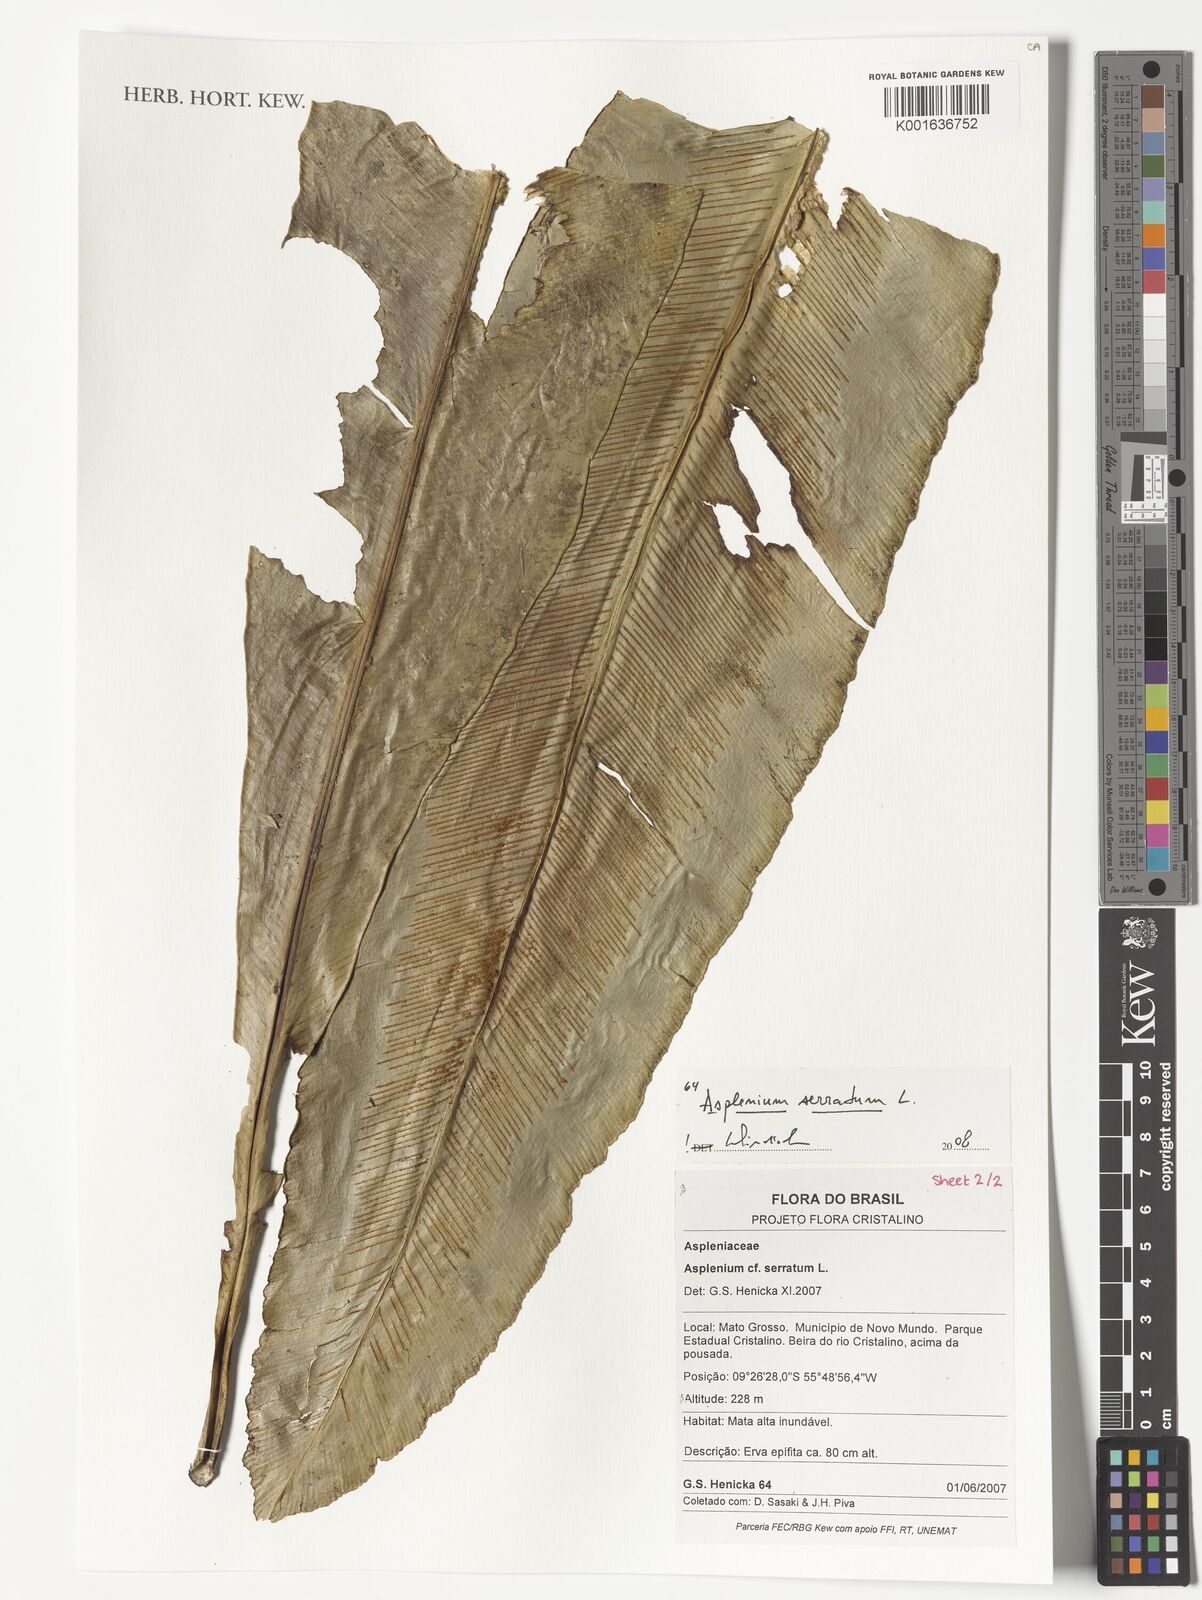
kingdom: Plantae
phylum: Tracheophyta
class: Polypodiopsida
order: Polypodiales
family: Aspleniaceae
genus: Asplenium
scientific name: Asplenium serratum
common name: Wild birdnest fern
